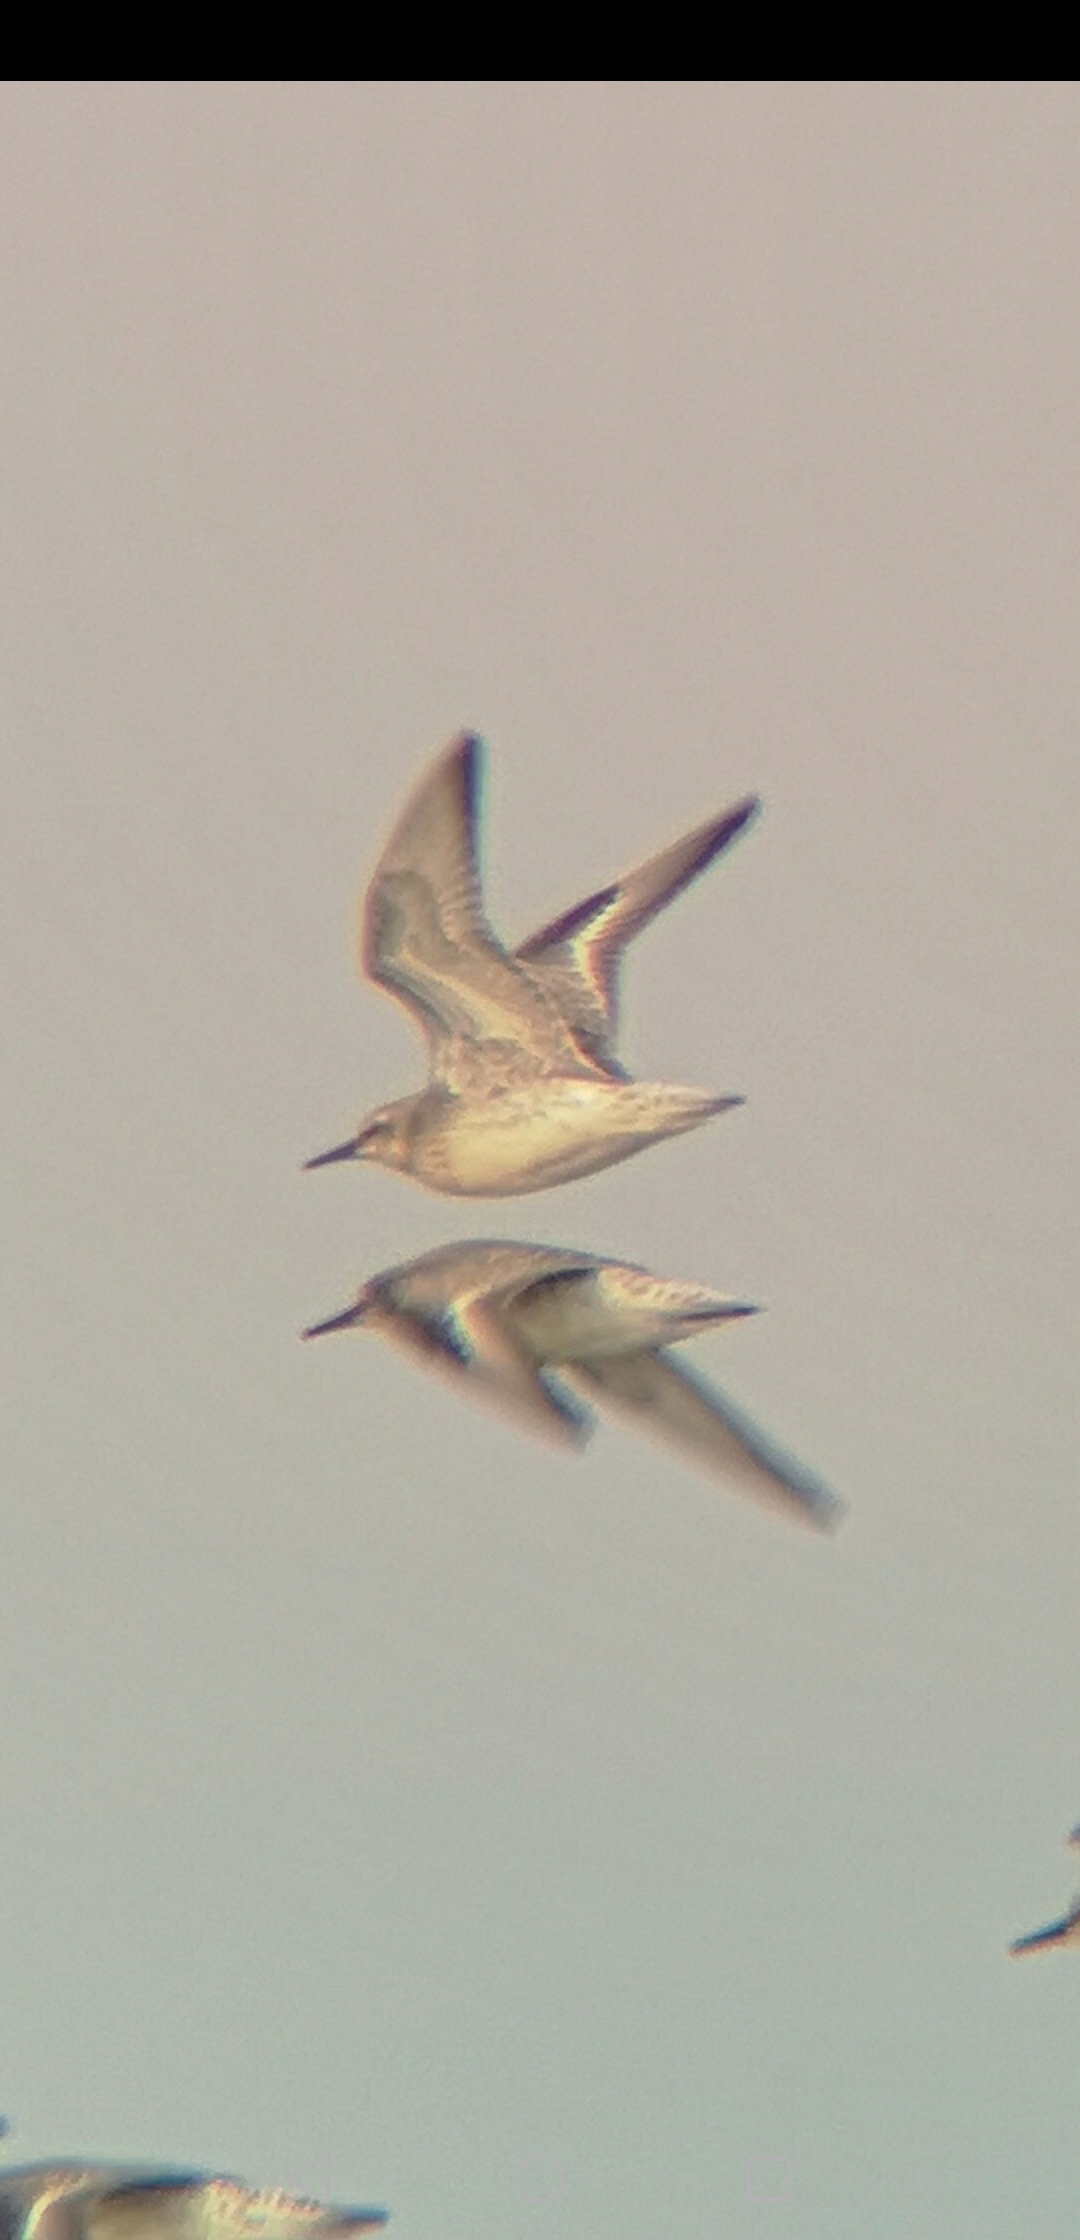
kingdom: Animalia
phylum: Chordata
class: Aves
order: Charadriiformes
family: Scolopacidae
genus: Calidris
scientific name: Calidris canutus
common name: Islandsk ryle
